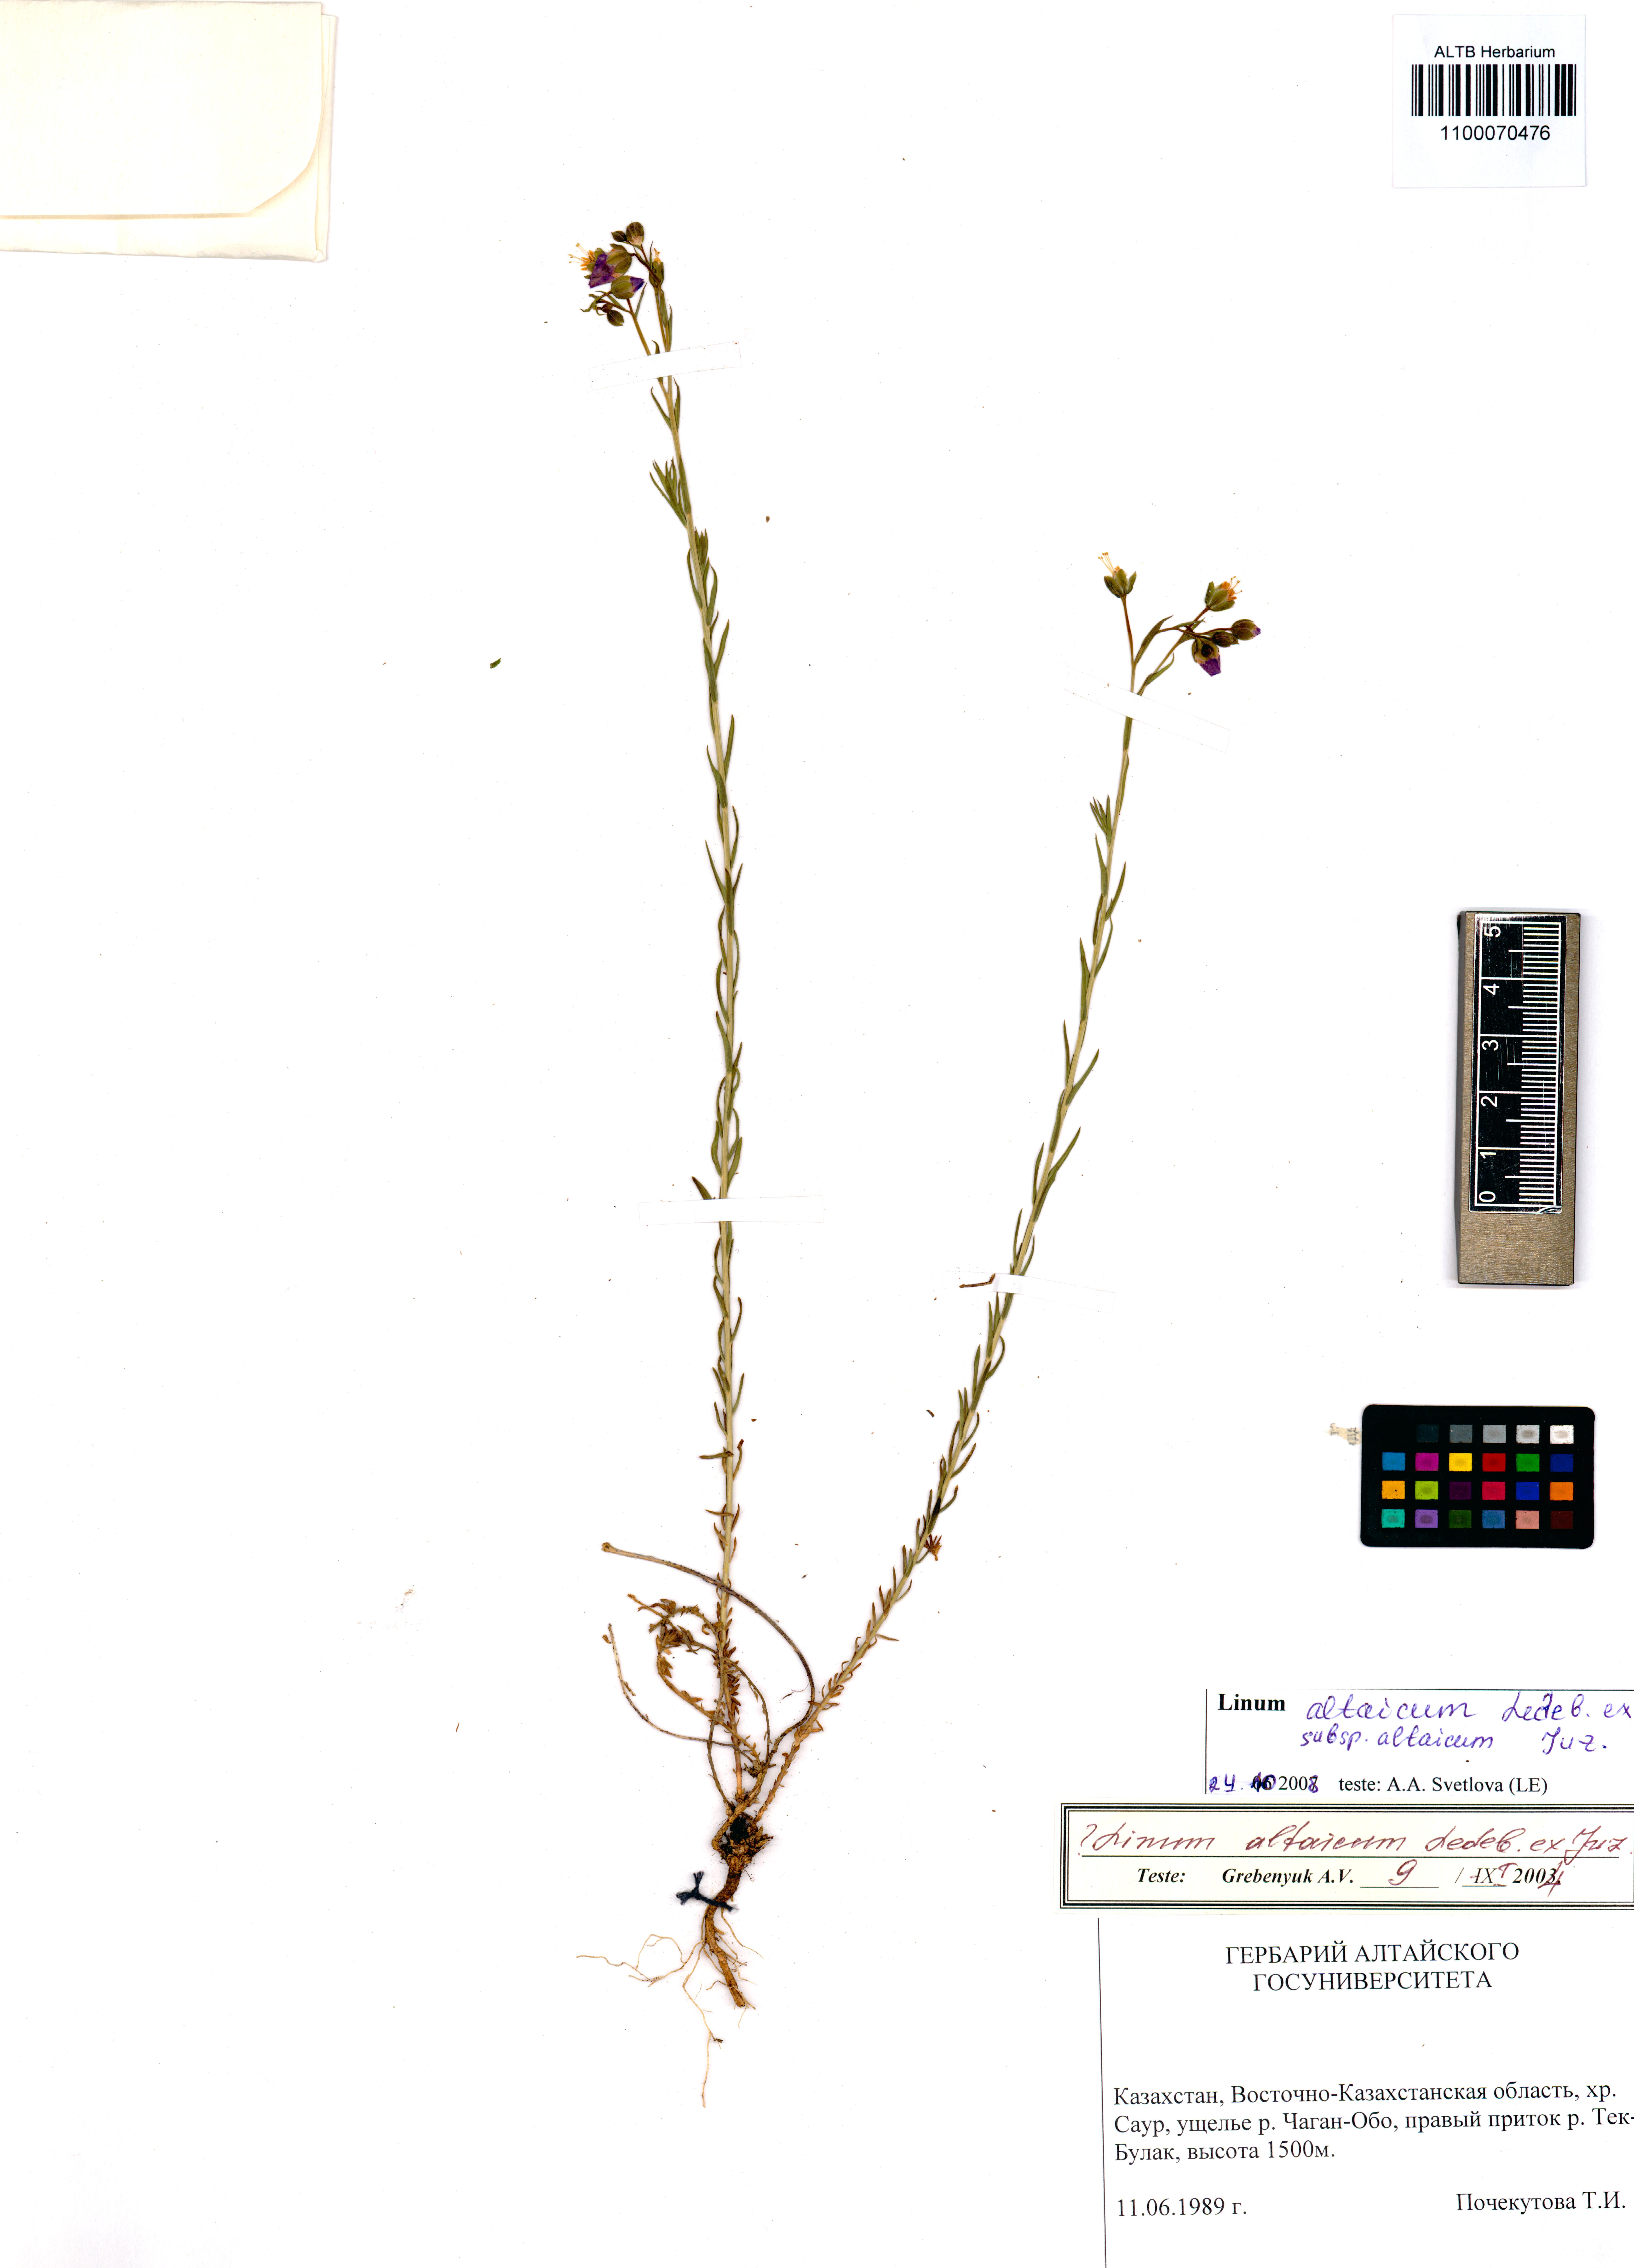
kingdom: Plantae
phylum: Tracheophyta
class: Magnoliopsida
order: Malpighiales
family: Linaceae
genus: Linum
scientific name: Linum altaicum
